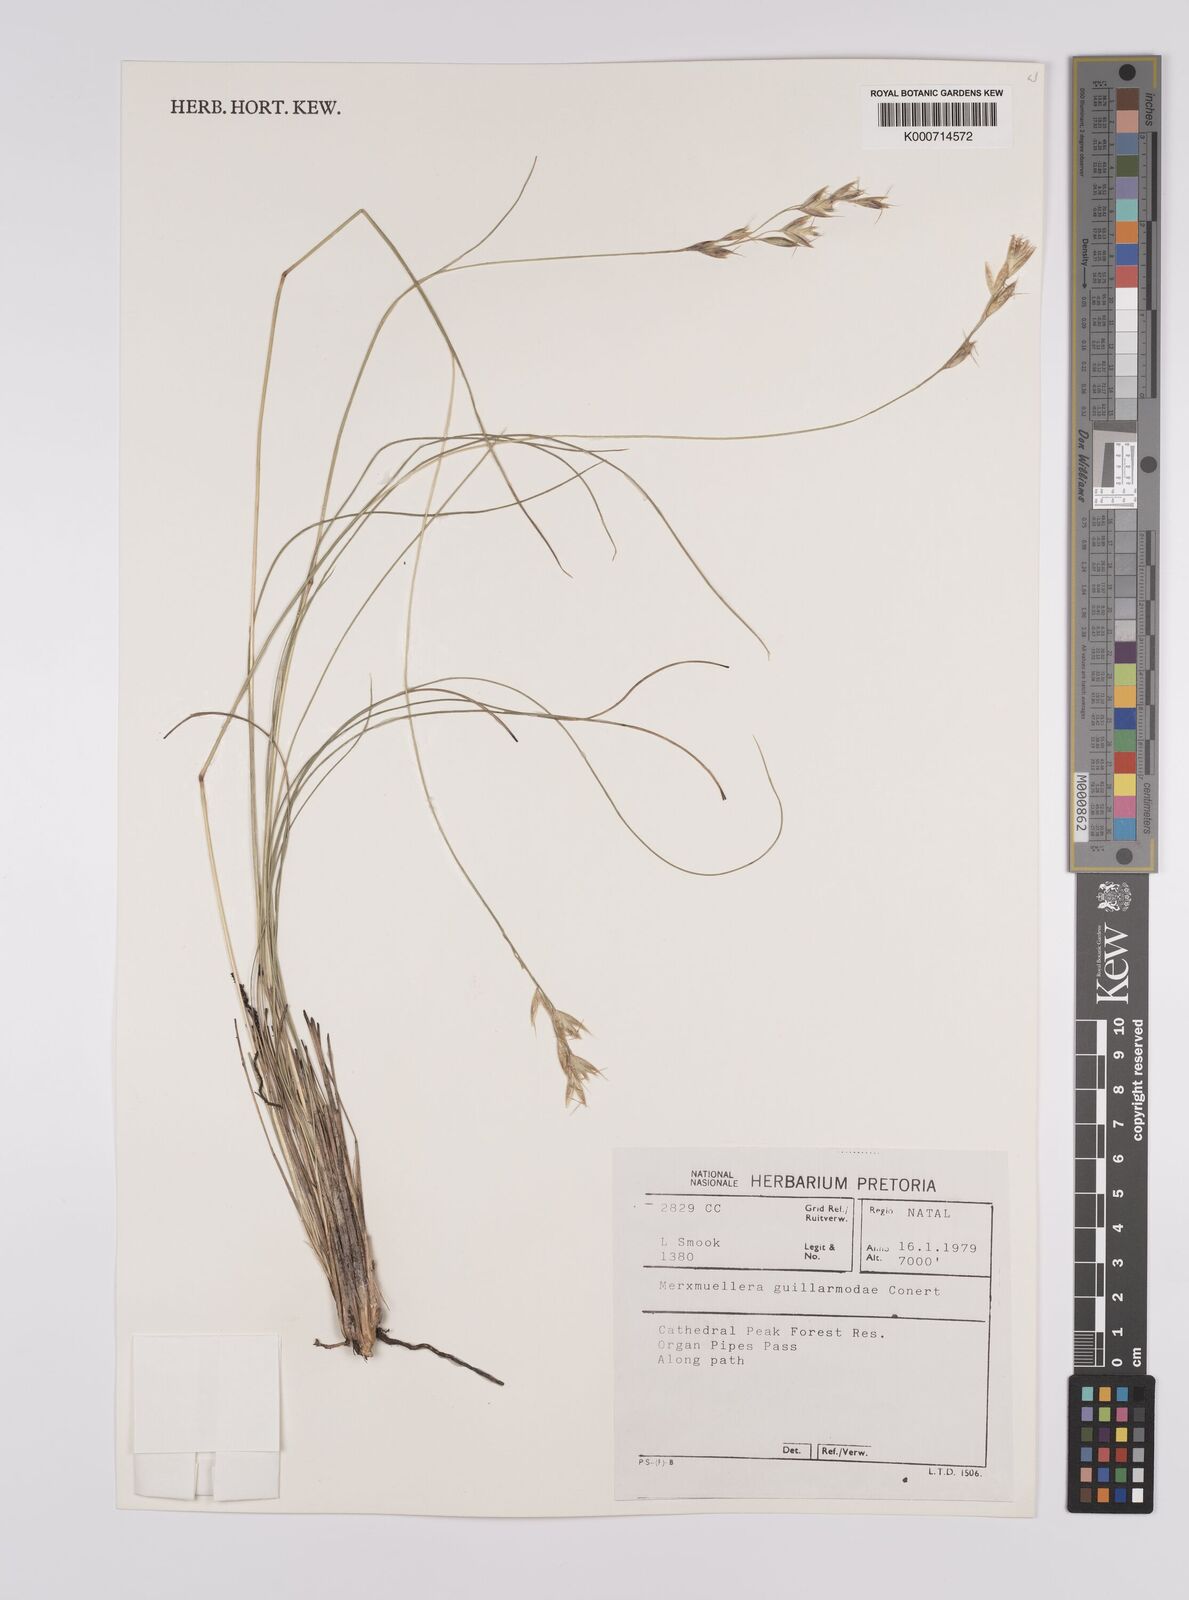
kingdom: Plantae
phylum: Tracheophyta
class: Liliopsida
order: Poales
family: Poaceae
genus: Rytidosperma
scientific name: Rytidosperma
